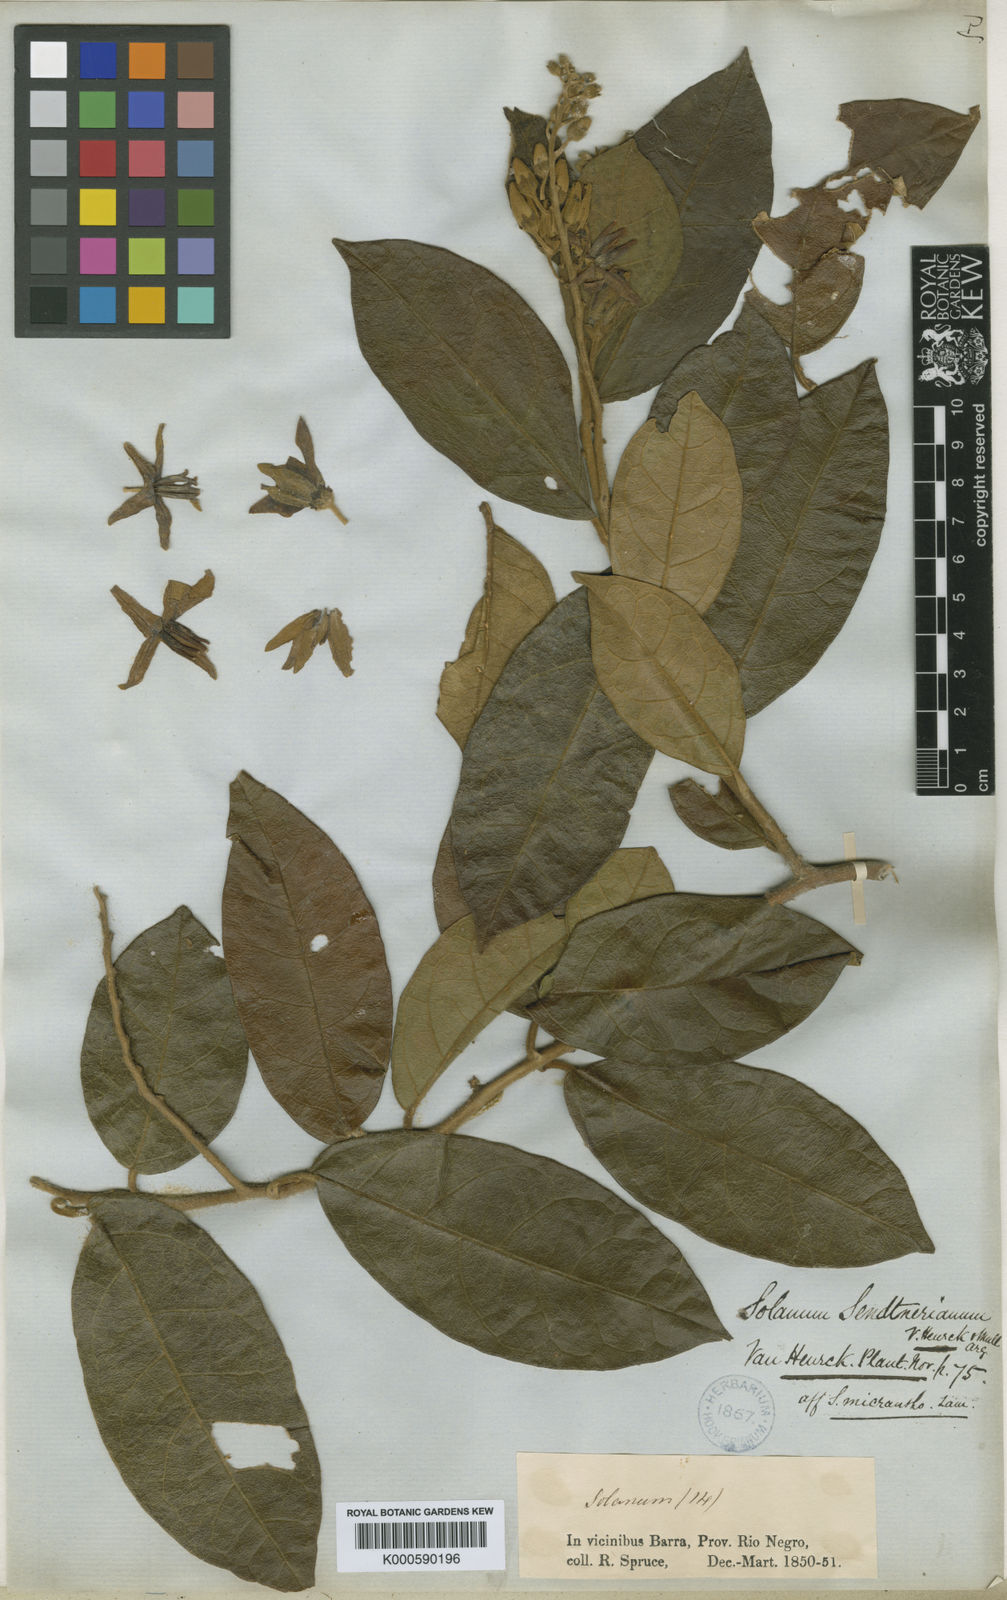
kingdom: Plantae
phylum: Tracheophyta
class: Magnoliopsida
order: Solanales
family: Solanaceae
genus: Solanum
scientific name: Solanum
